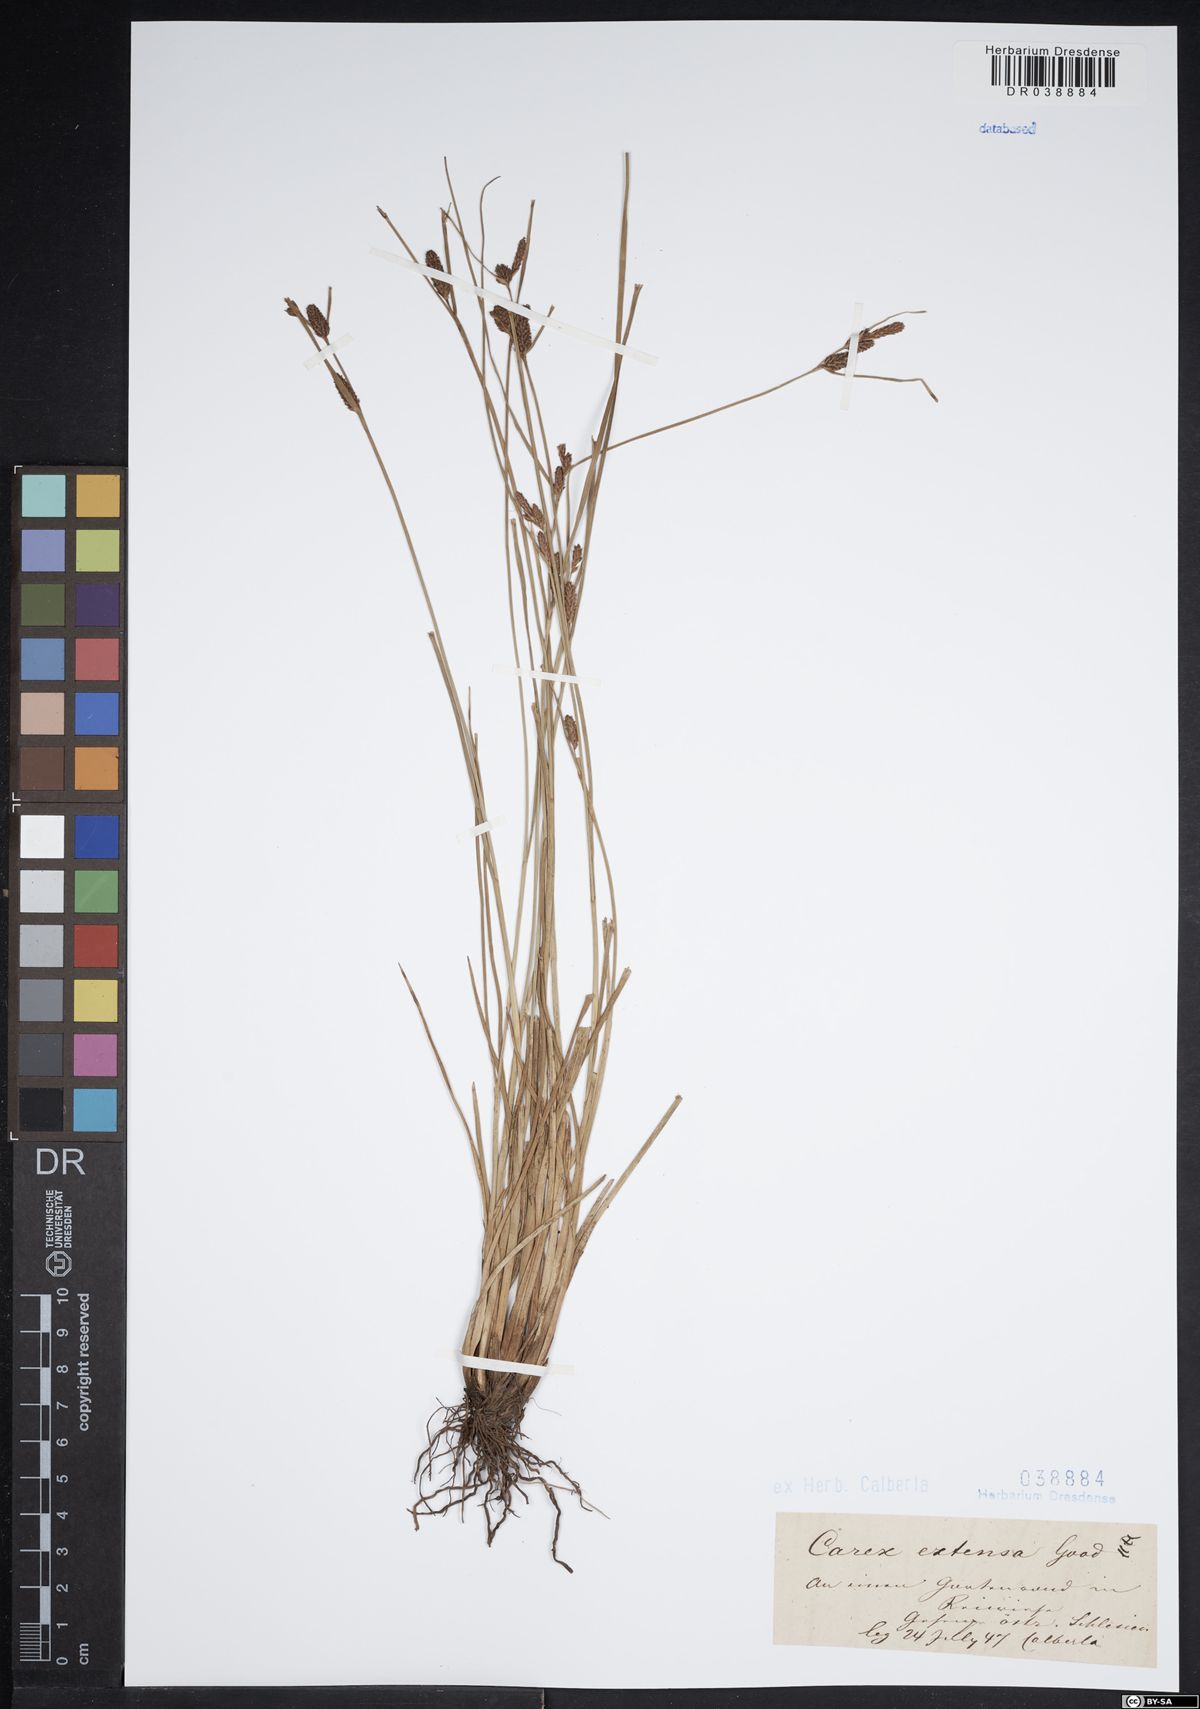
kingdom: Plantae
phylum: Tracheophyta
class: Liliopsida
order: Poales
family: Cyperaceae
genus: Carex
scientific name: Carex extensa
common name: Long-bracted sedge
